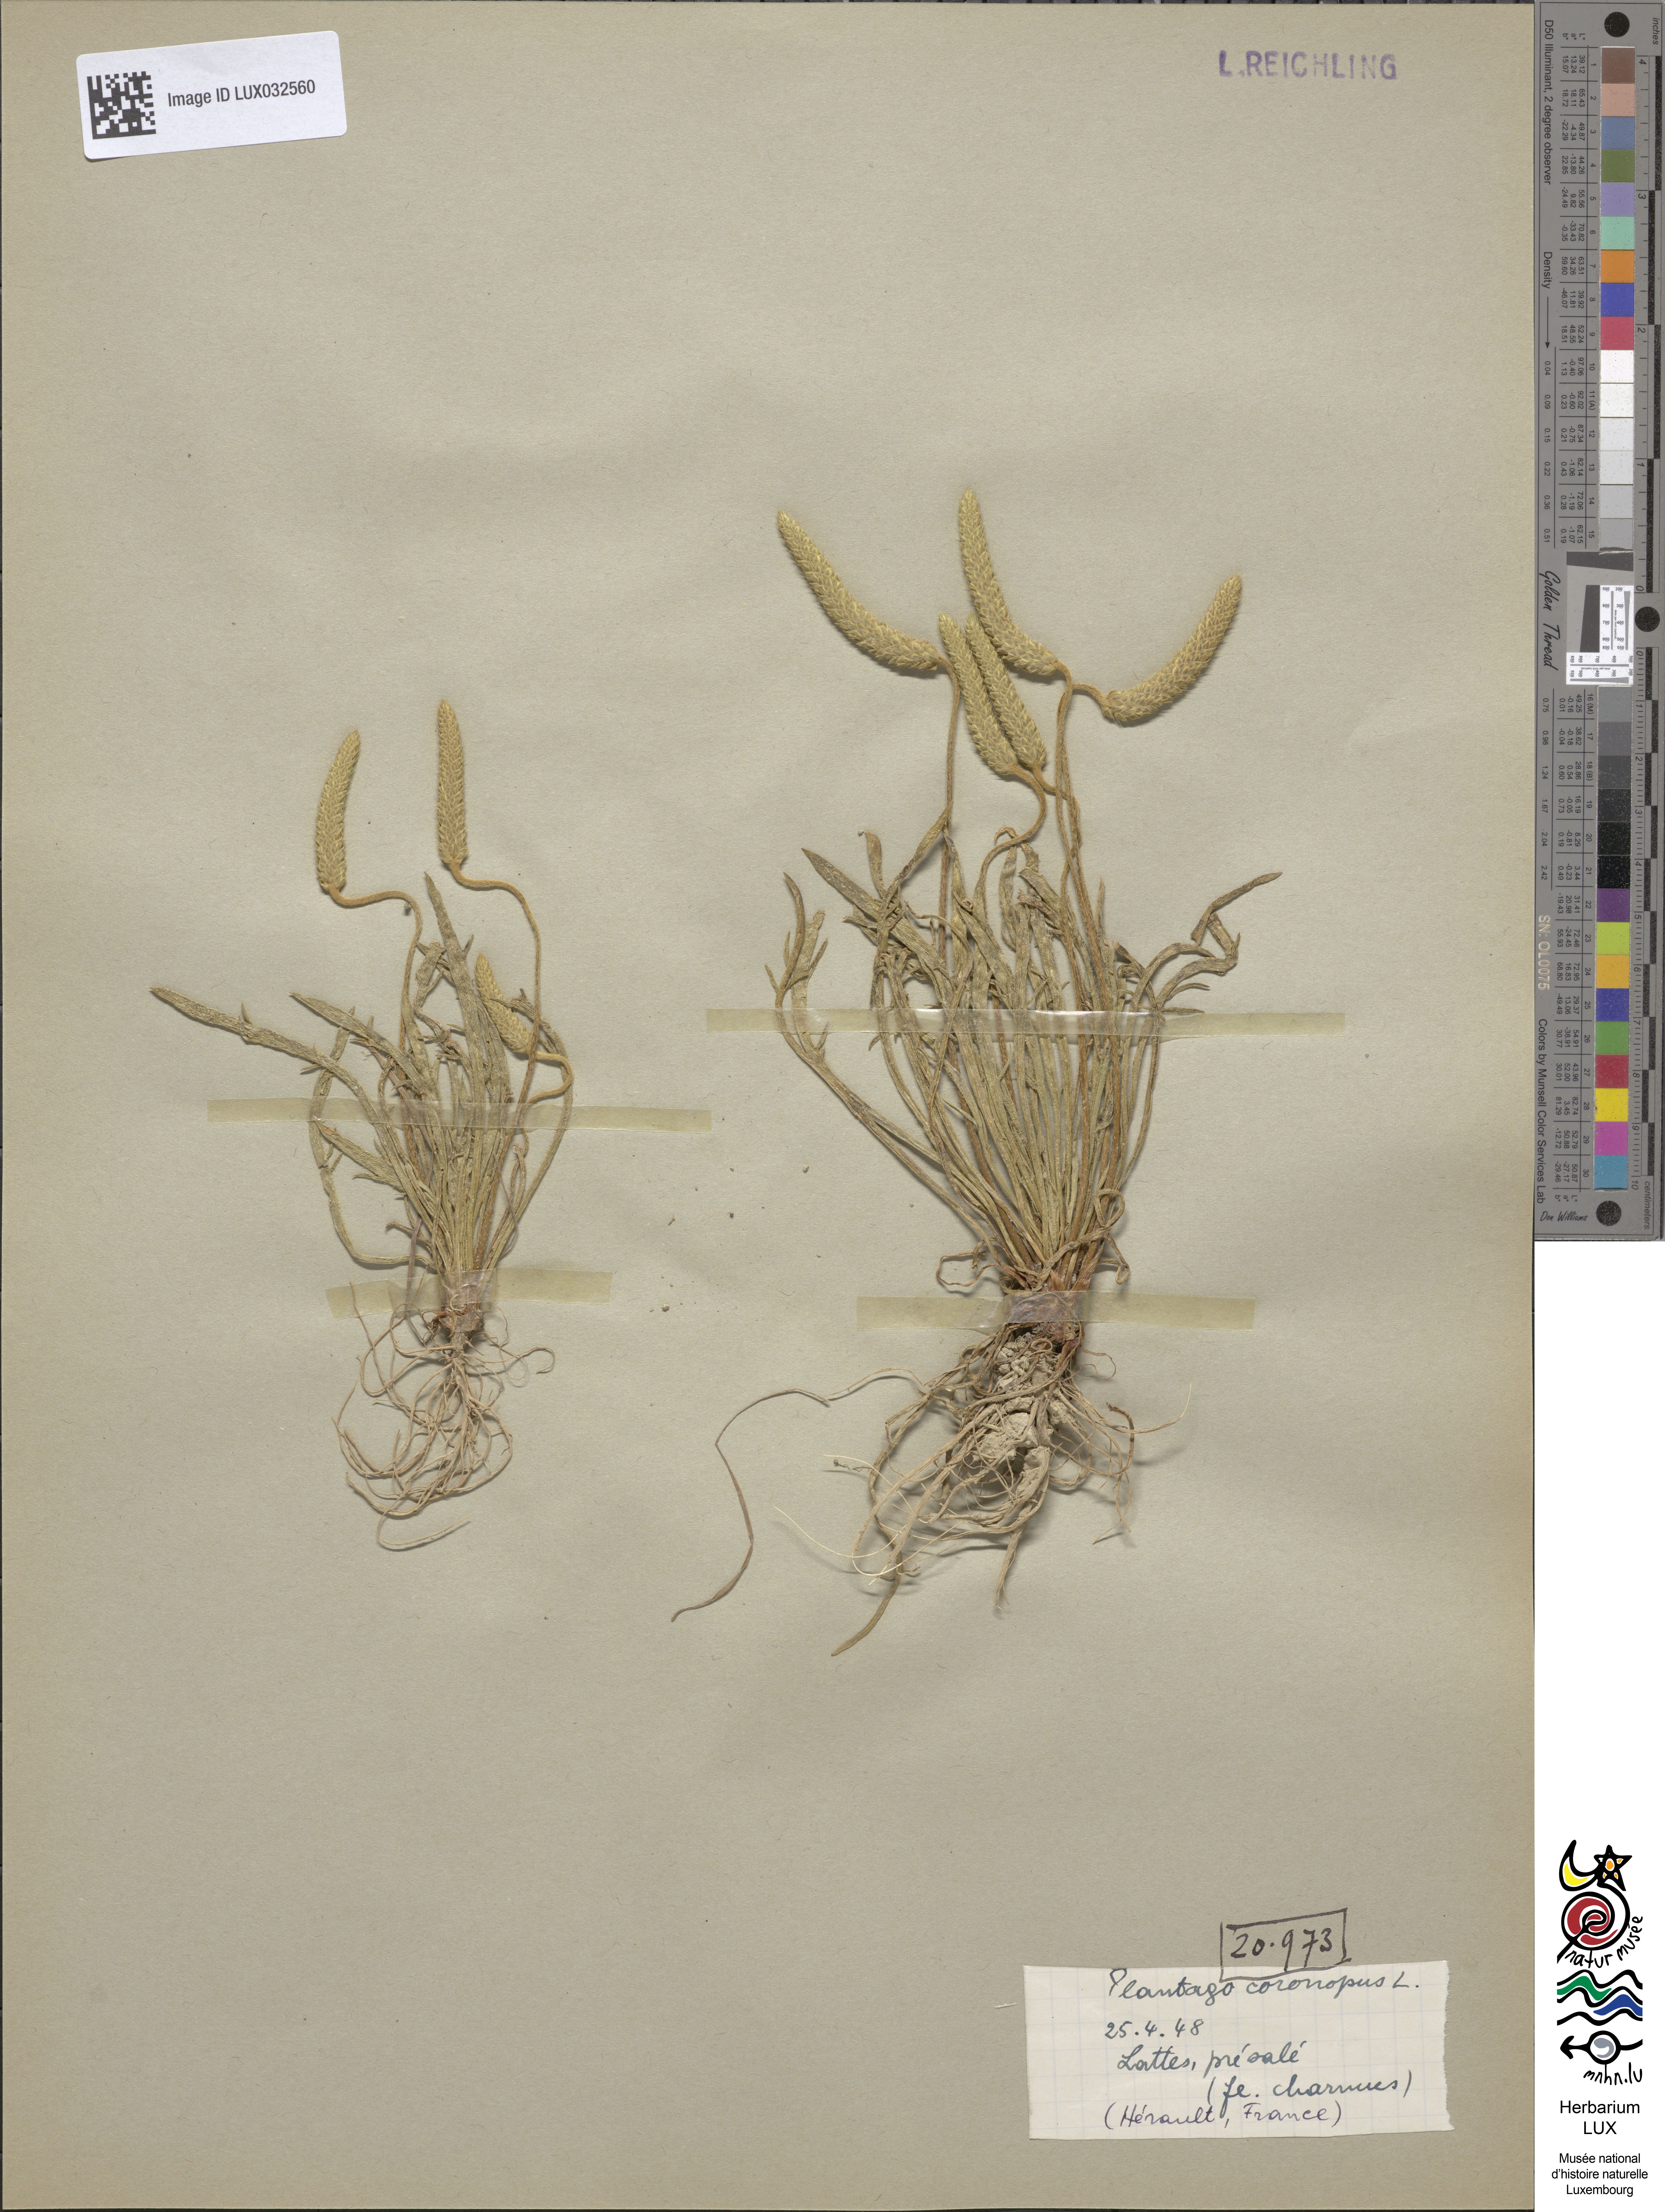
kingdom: Plantae
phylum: Tracheophyta
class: Magnoliopsida
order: Lamiales
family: Plantaginaceae
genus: Plantago
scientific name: Plantago coronopus
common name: Buck's-horn plantain
